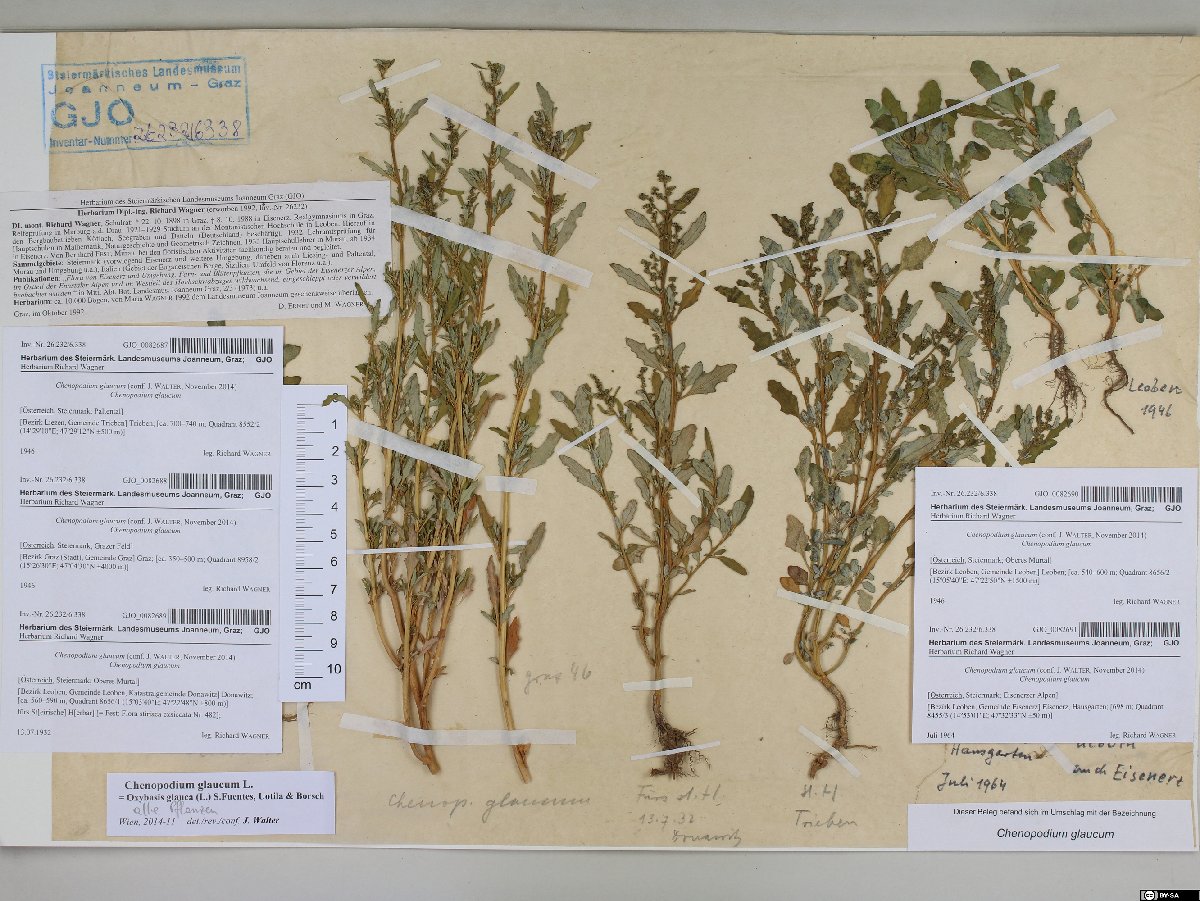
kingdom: Plantae
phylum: Tracheophyta
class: Magnoliopsida
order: Caryophyllales
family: Amaranthaceae
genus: Oxybasis
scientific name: Oxybasis glauca
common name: Glaucous goosefoot
